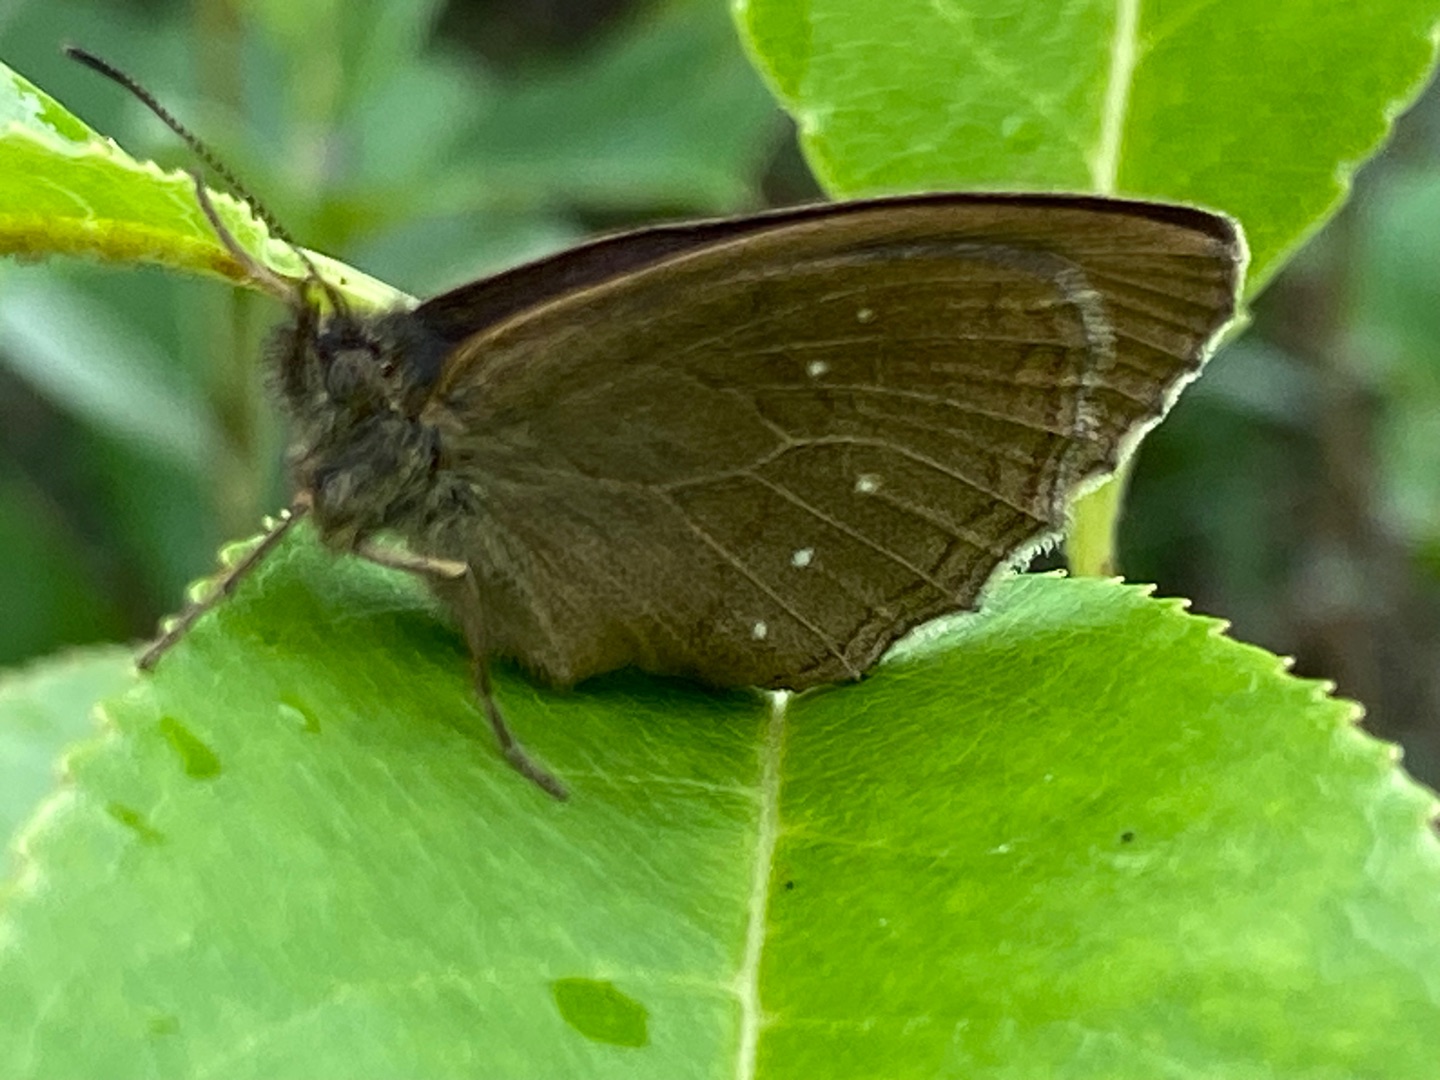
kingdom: Animalia
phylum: Arthropoda
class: Insecta
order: Lepidoptera
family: Nymphalidae
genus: Aphantopus
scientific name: Aphantopus hyperantus
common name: Engrandøje
